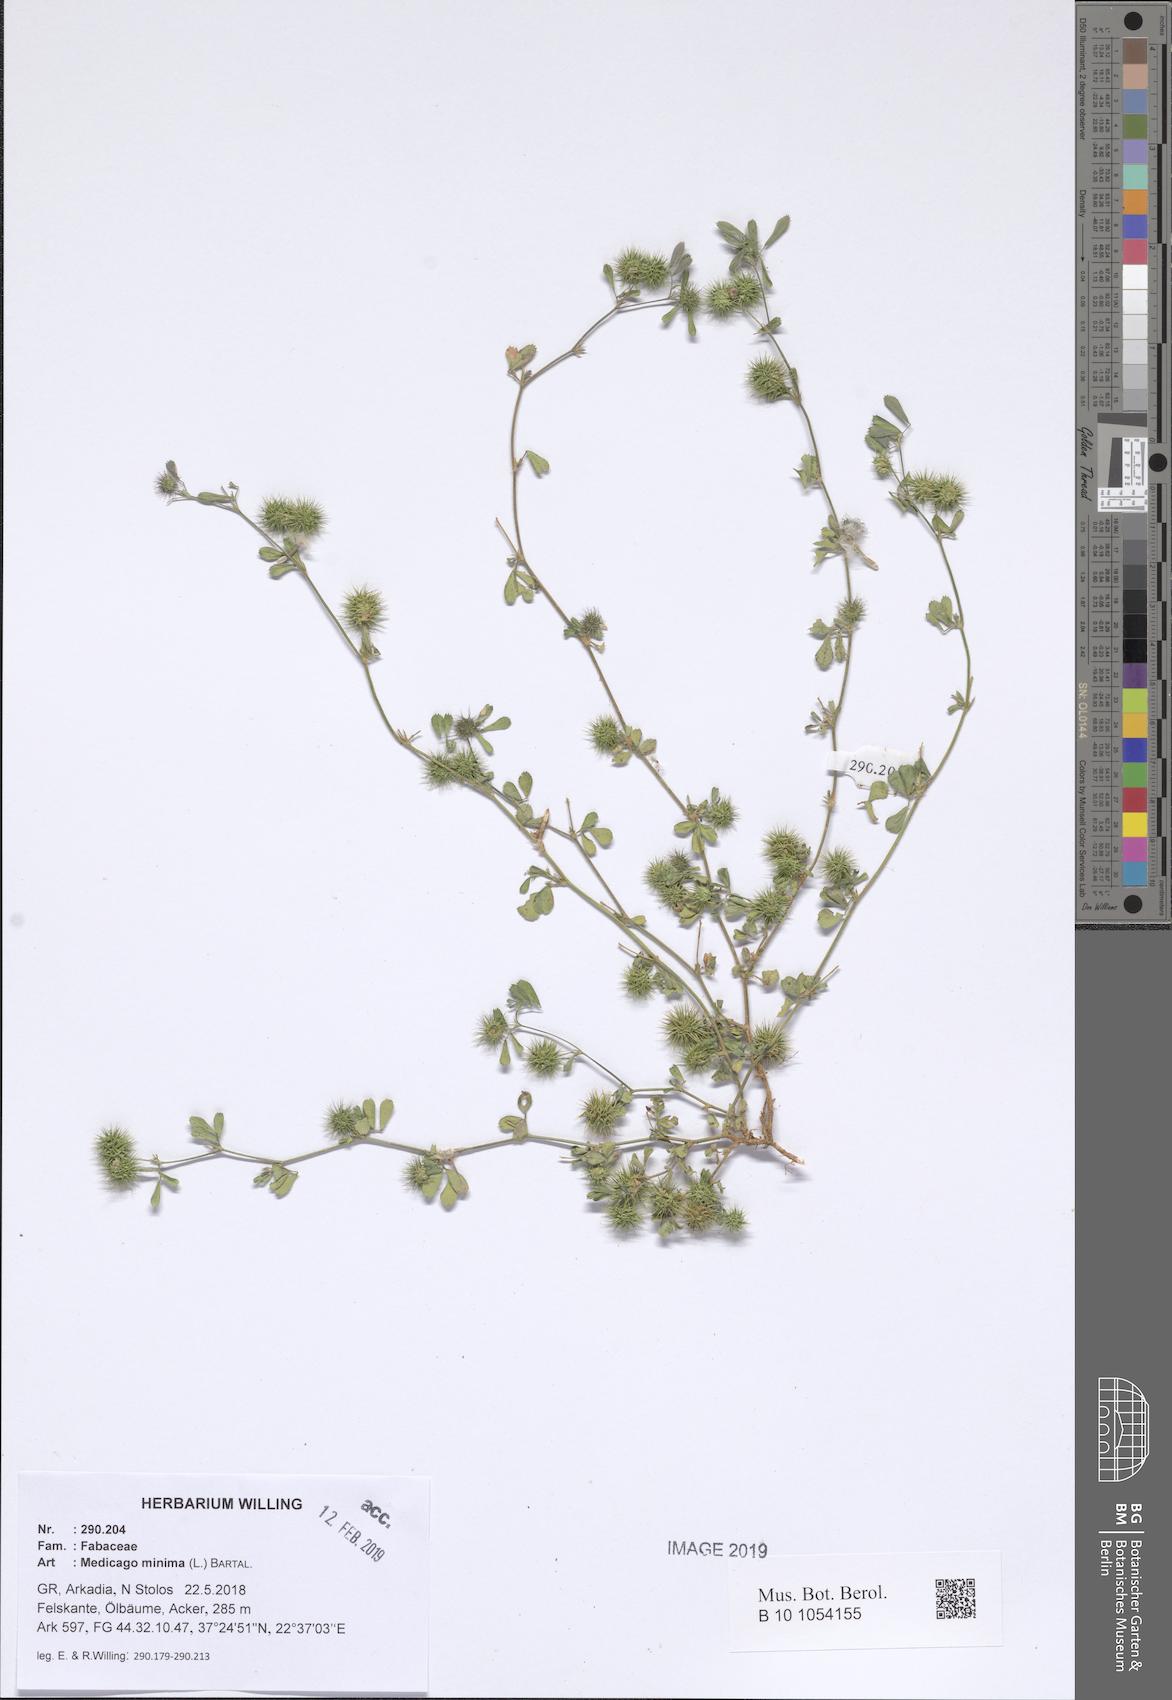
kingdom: Plantae
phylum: Tracheophyta
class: Magnoliopsida
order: Fabales
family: Fabaceae
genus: Medicago
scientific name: Medicago minima
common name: Little bur-clover
